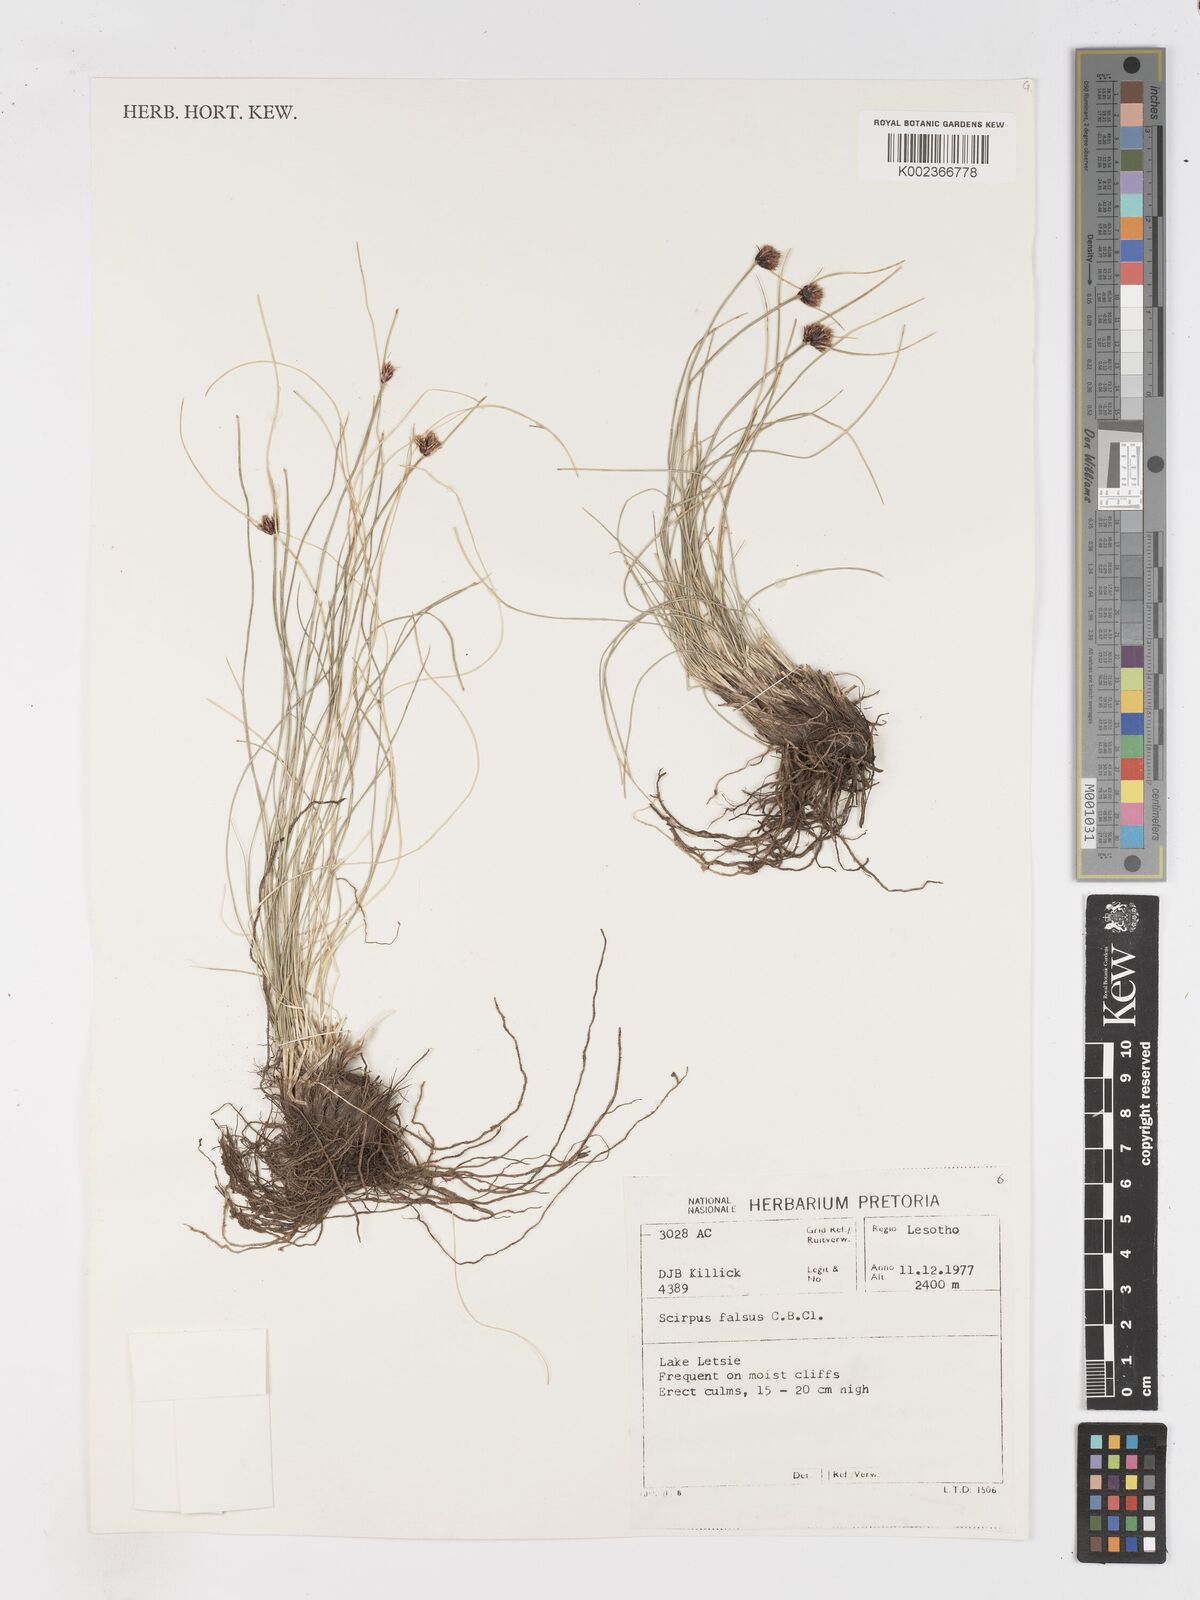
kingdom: Plantae
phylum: Tracheophyta
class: Liliopsida
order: Poales
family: Cyperaceae
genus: Dracoscirpoides
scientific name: Dracoscirpoides falsa
